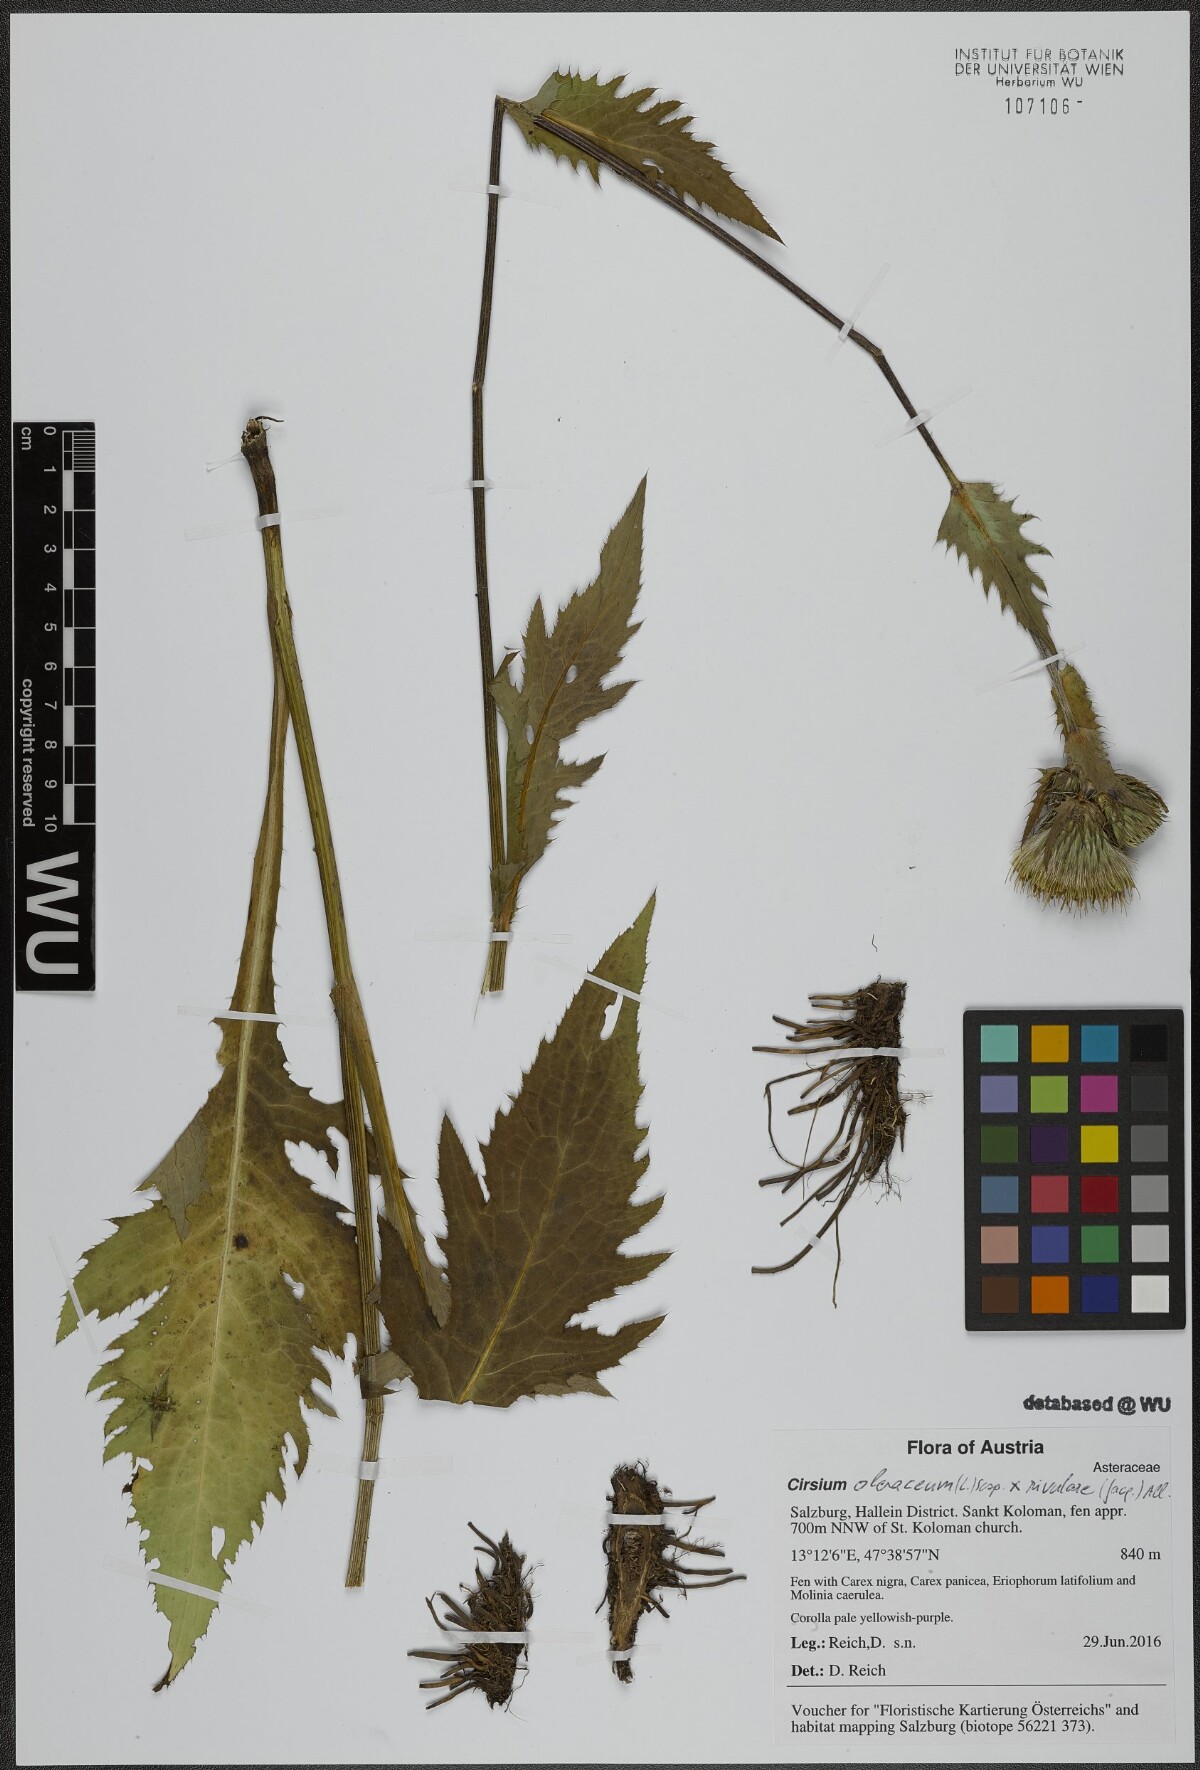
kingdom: Plantae
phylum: Tracheophyta
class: Magnoliopsida
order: Asterales
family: Asteraceae
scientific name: Asteraceae
